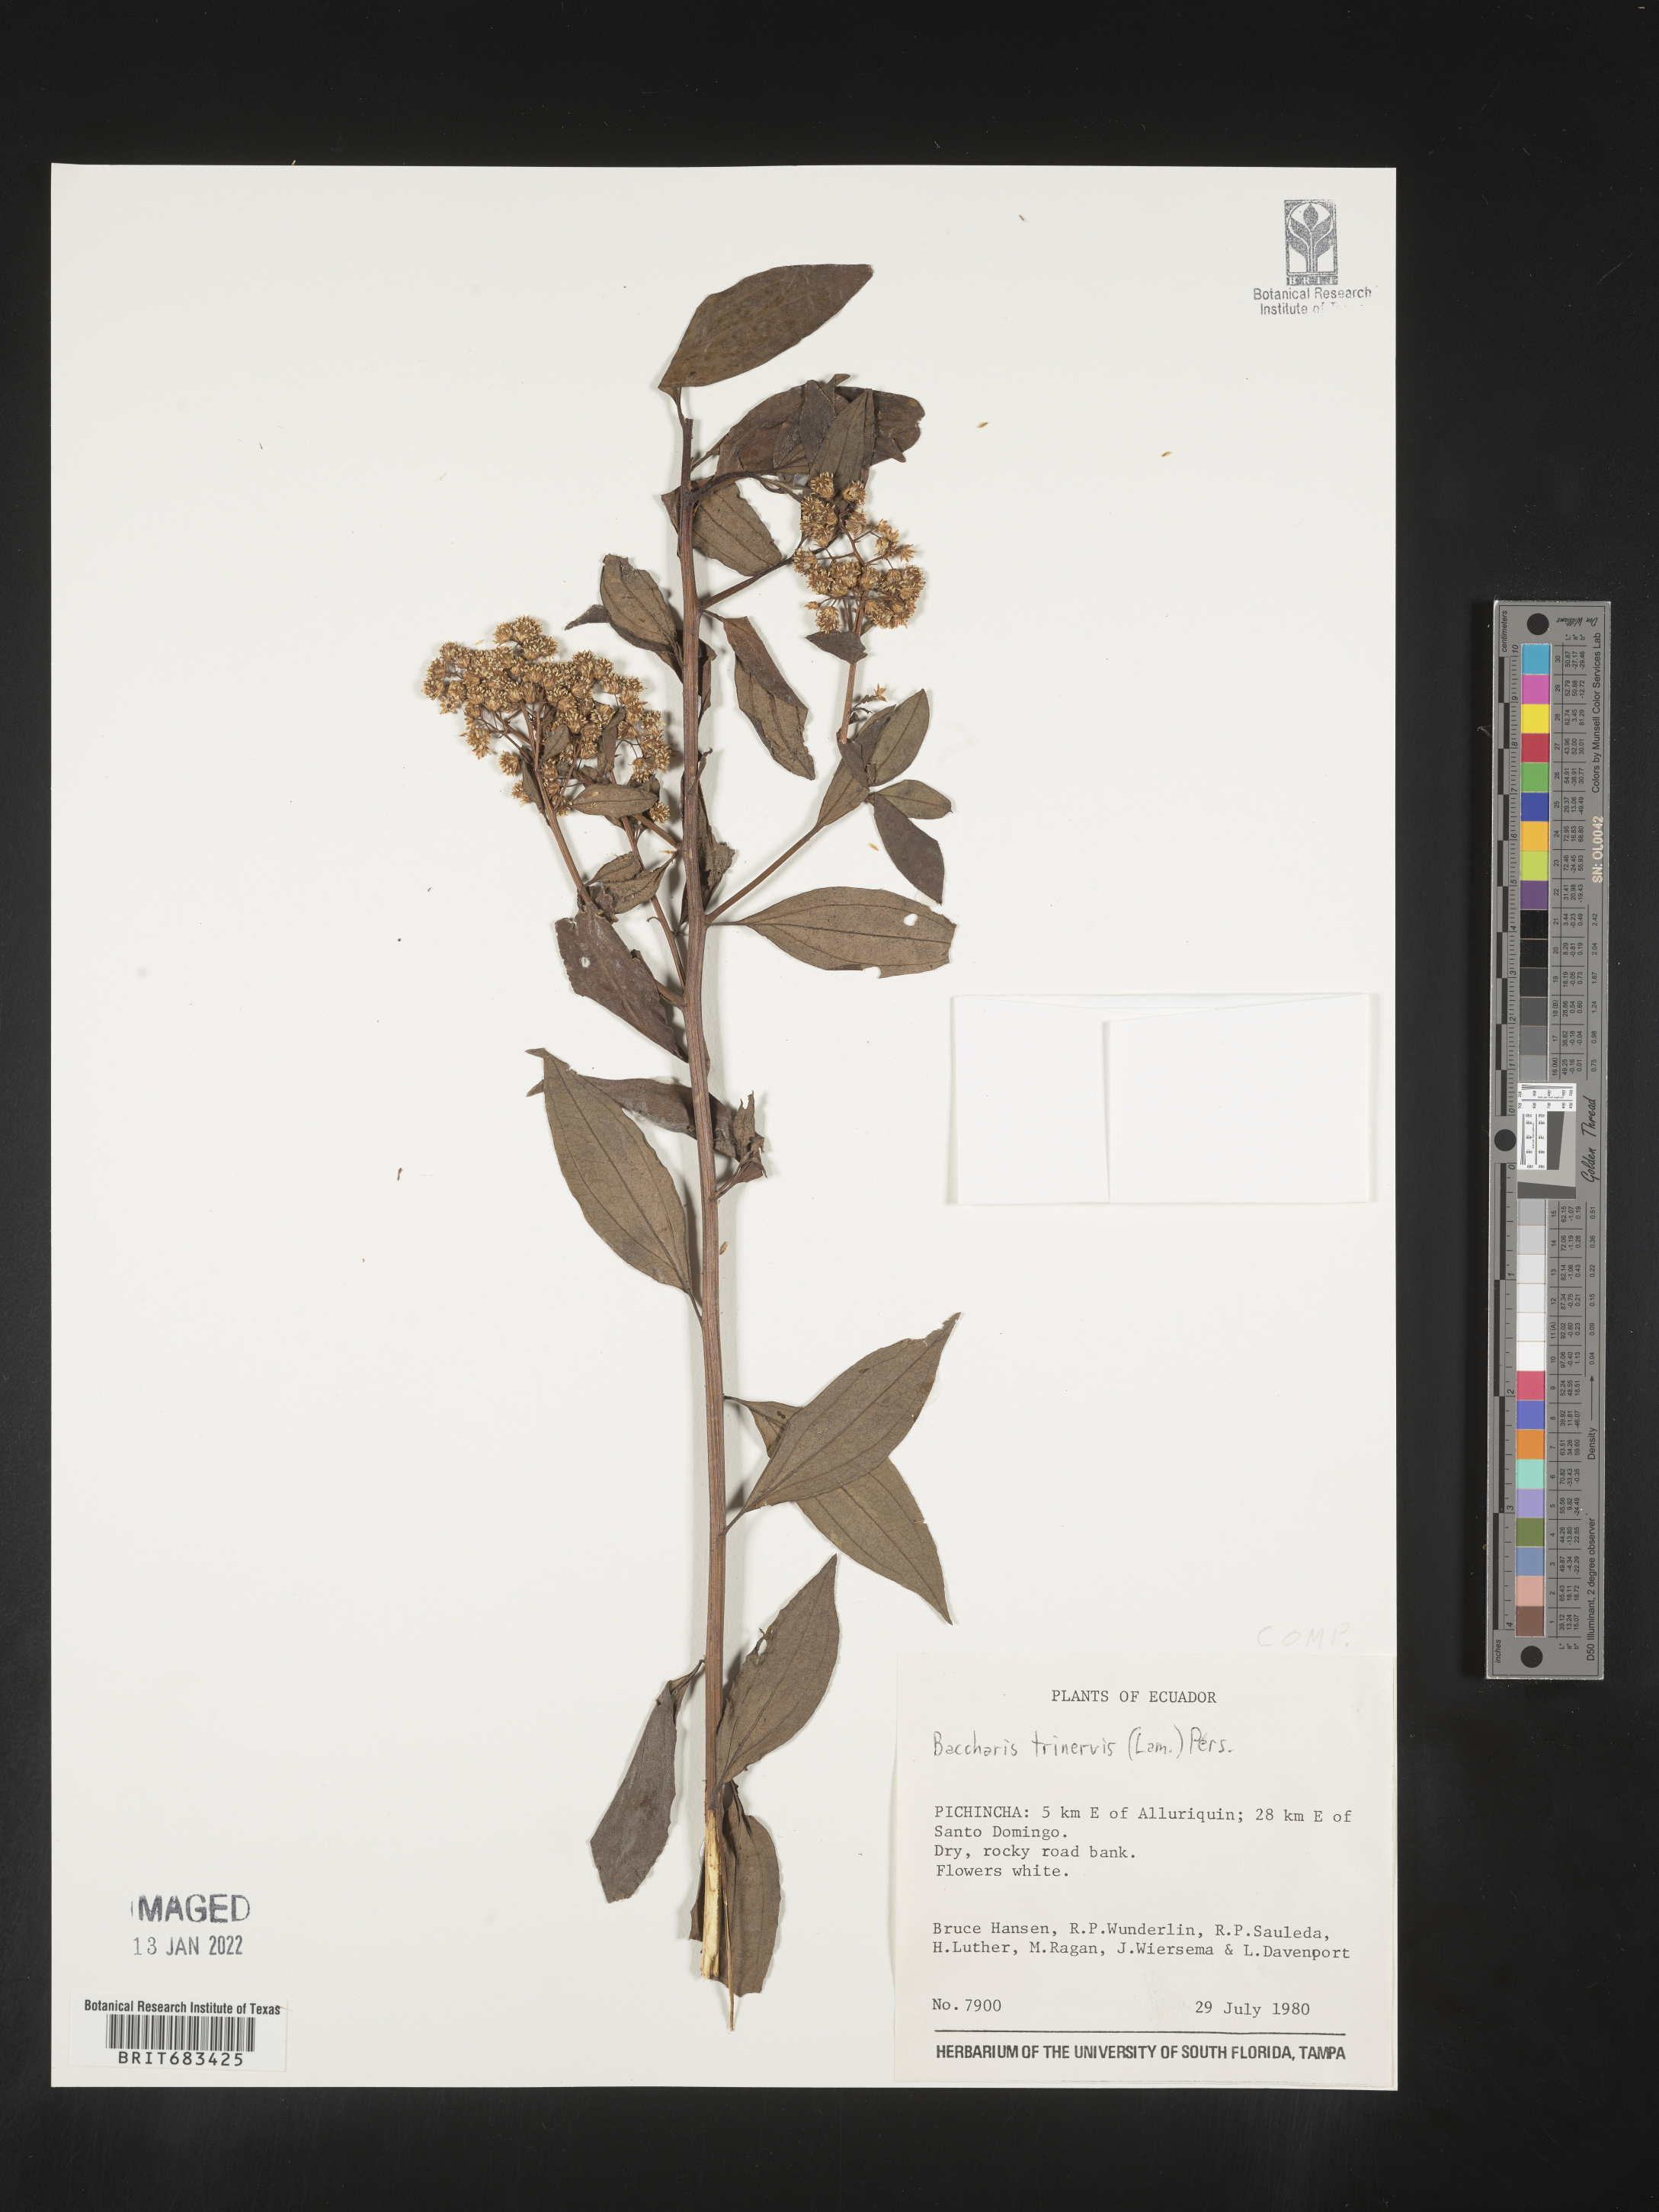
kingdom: Plantae
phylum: Tracheophyta
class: Magnoliopsida
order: Asterales
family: Asteraceae
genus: Baccharis
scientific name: Baccharis trinervis
